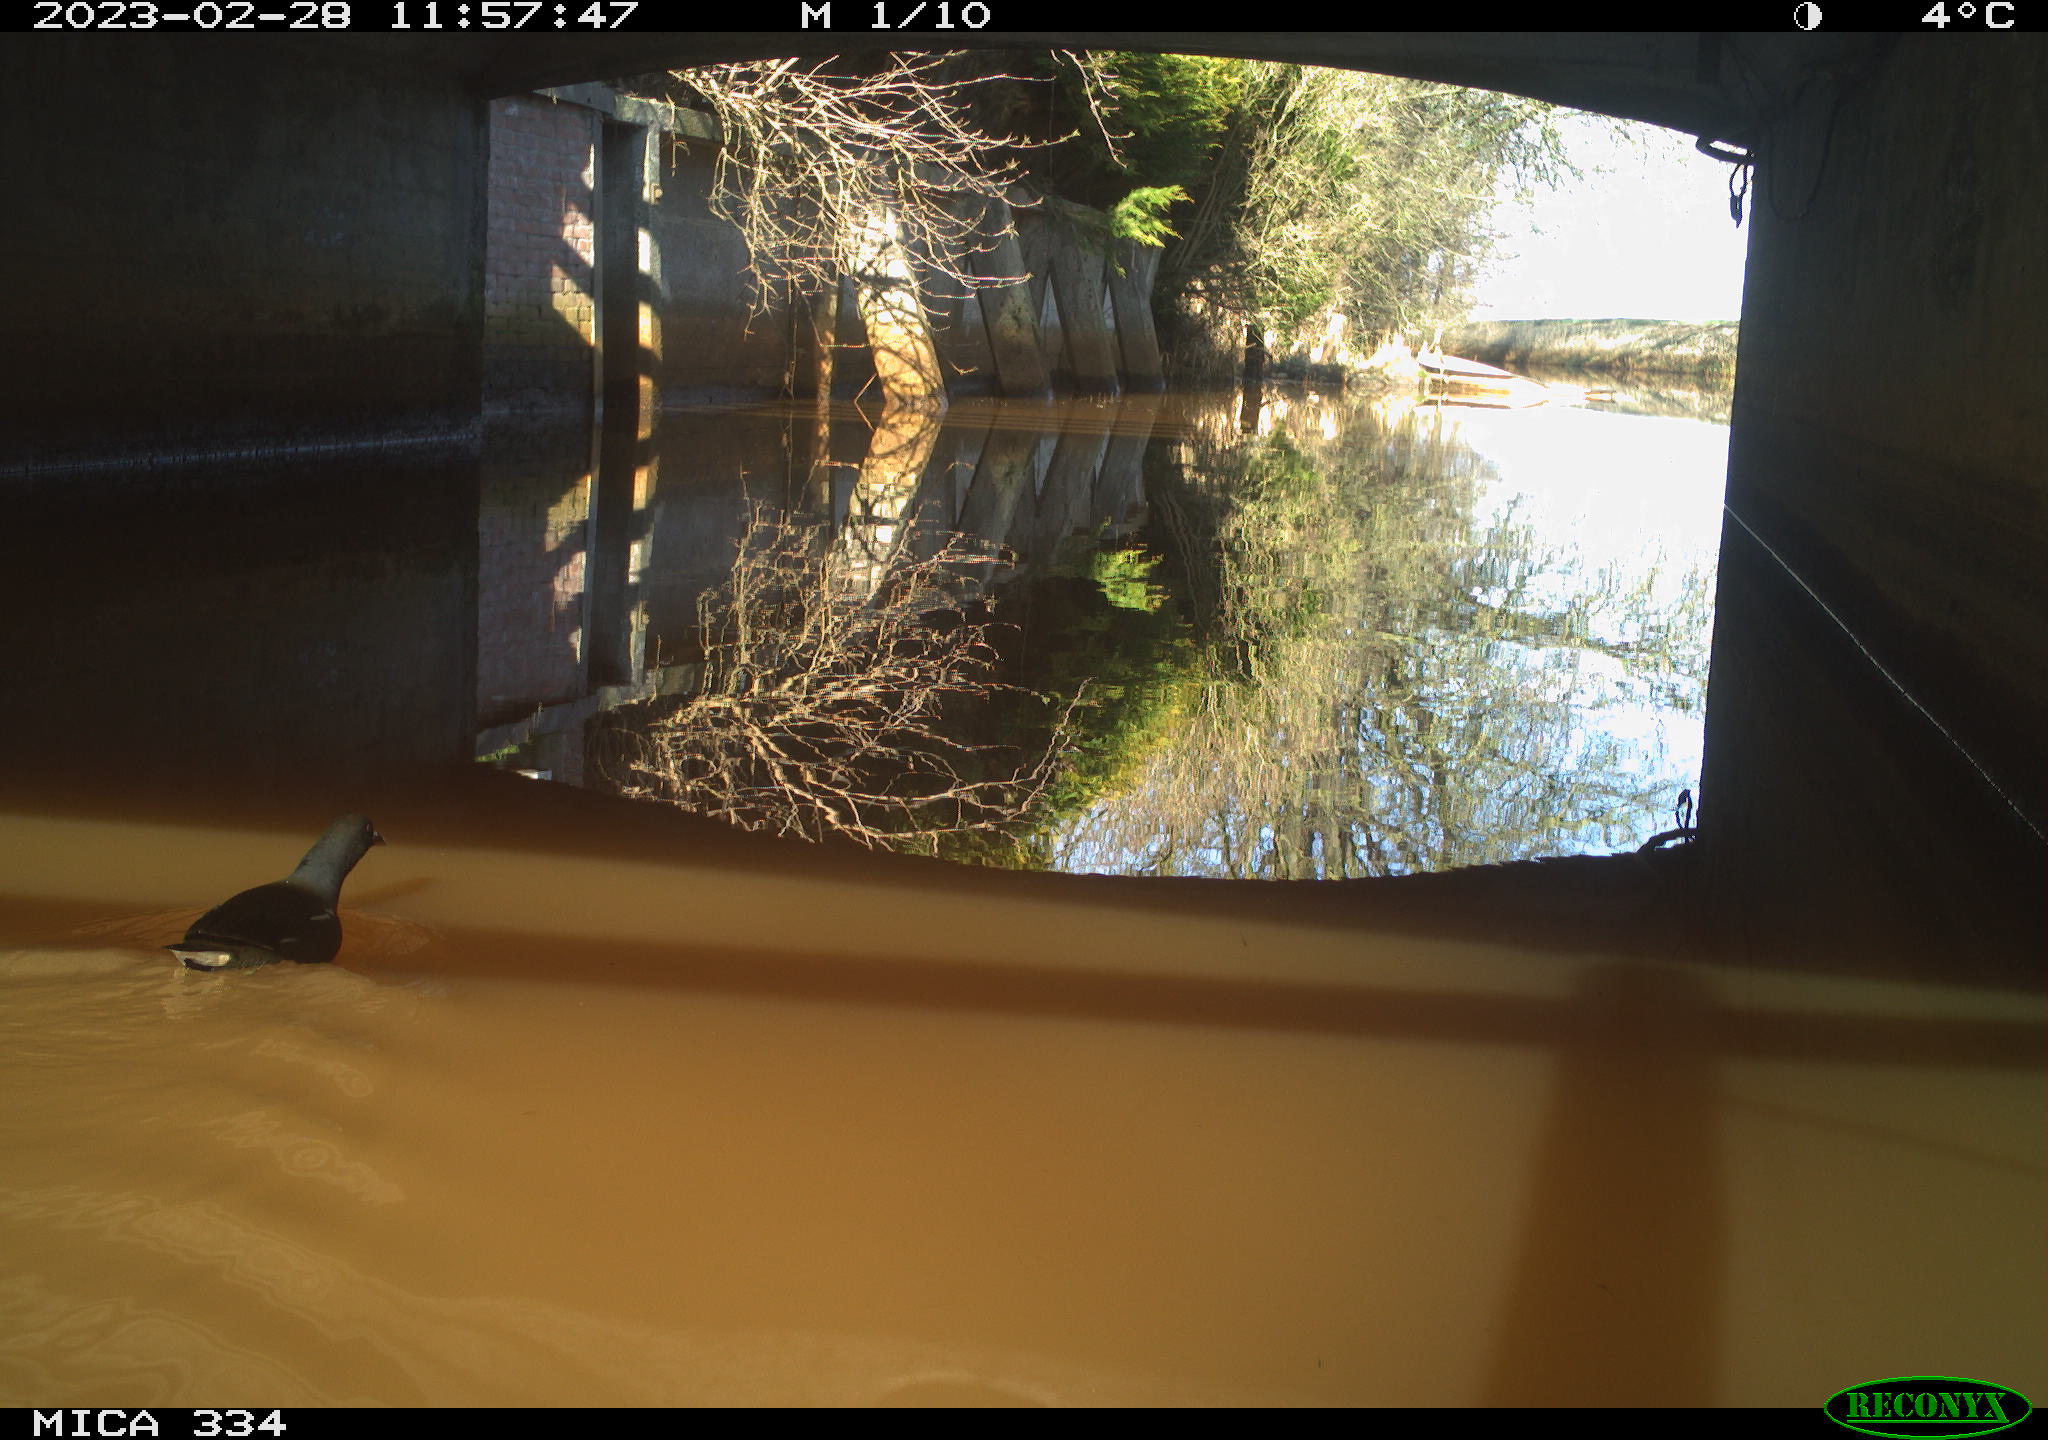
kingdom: Animalia
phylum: Chordata
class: Aves
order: Gruiformes
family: Rallidae
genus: Gallinula
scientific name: Gallinula chloropus
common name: Common moorhen
